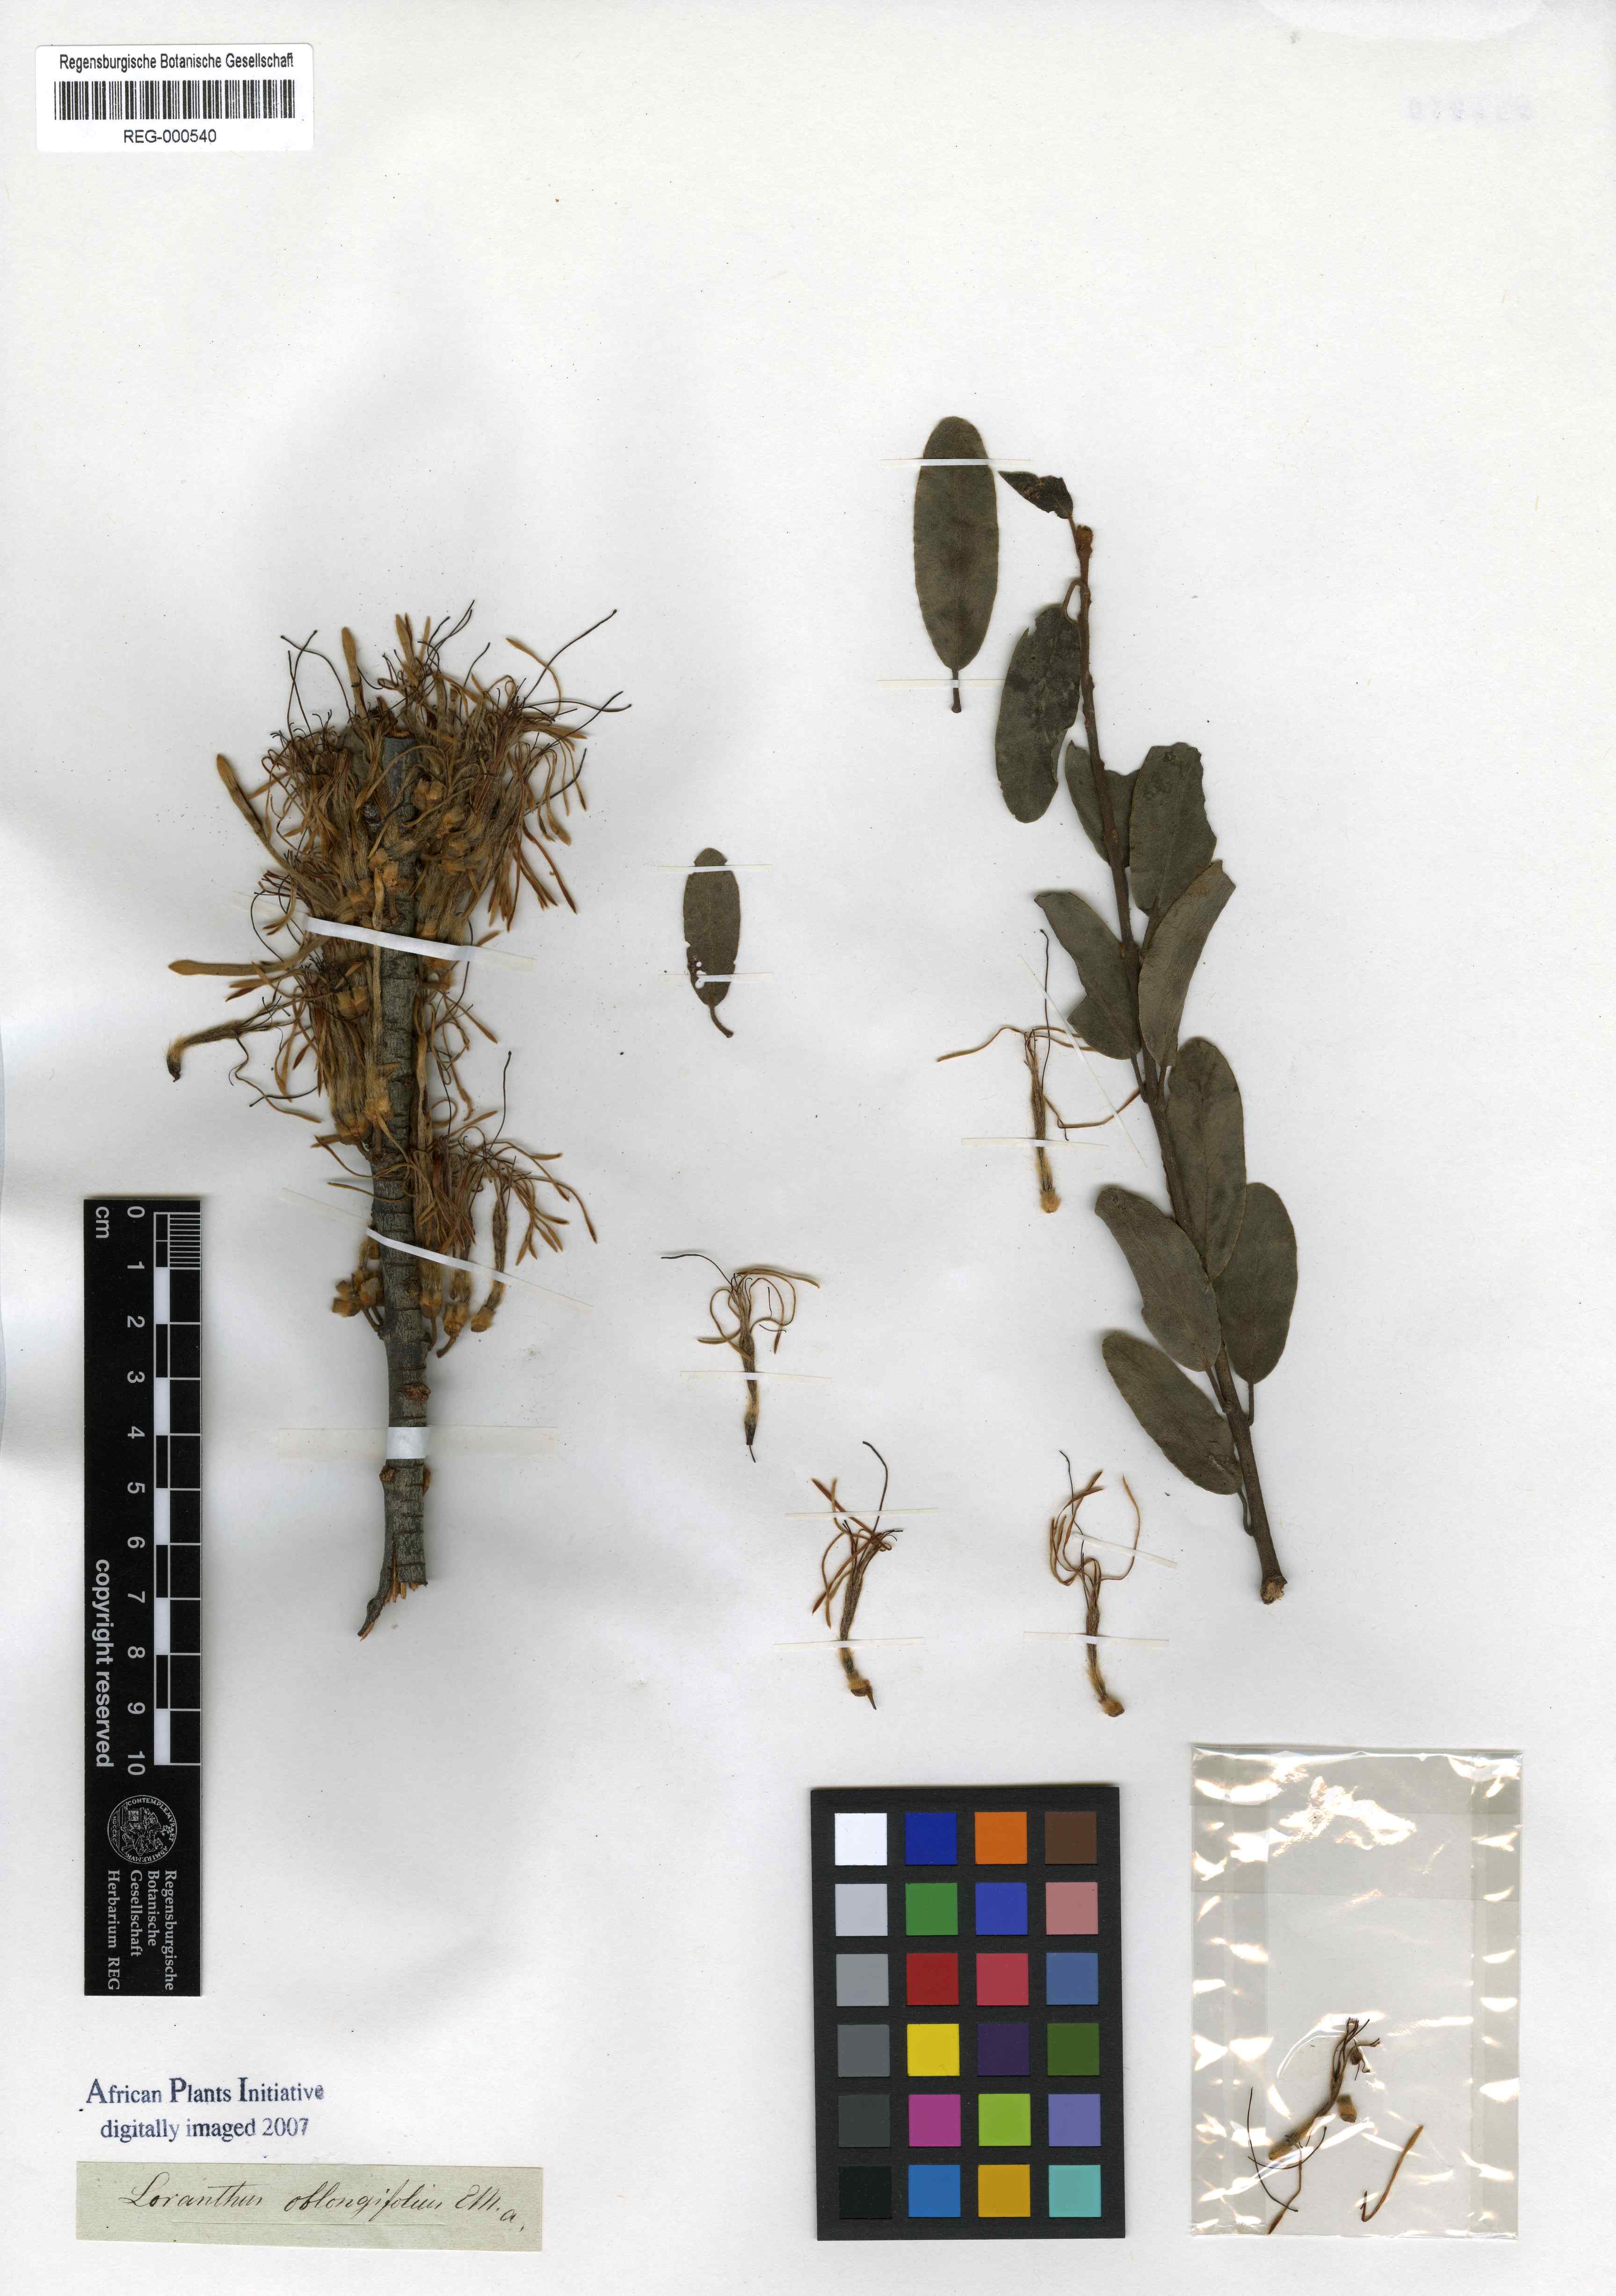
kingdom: Plantae
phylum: Tracheophyta
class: Magnoliopsida
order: Santalales
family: Loranthaceae
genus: Erianthemum
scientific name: Erianthemum dregei
